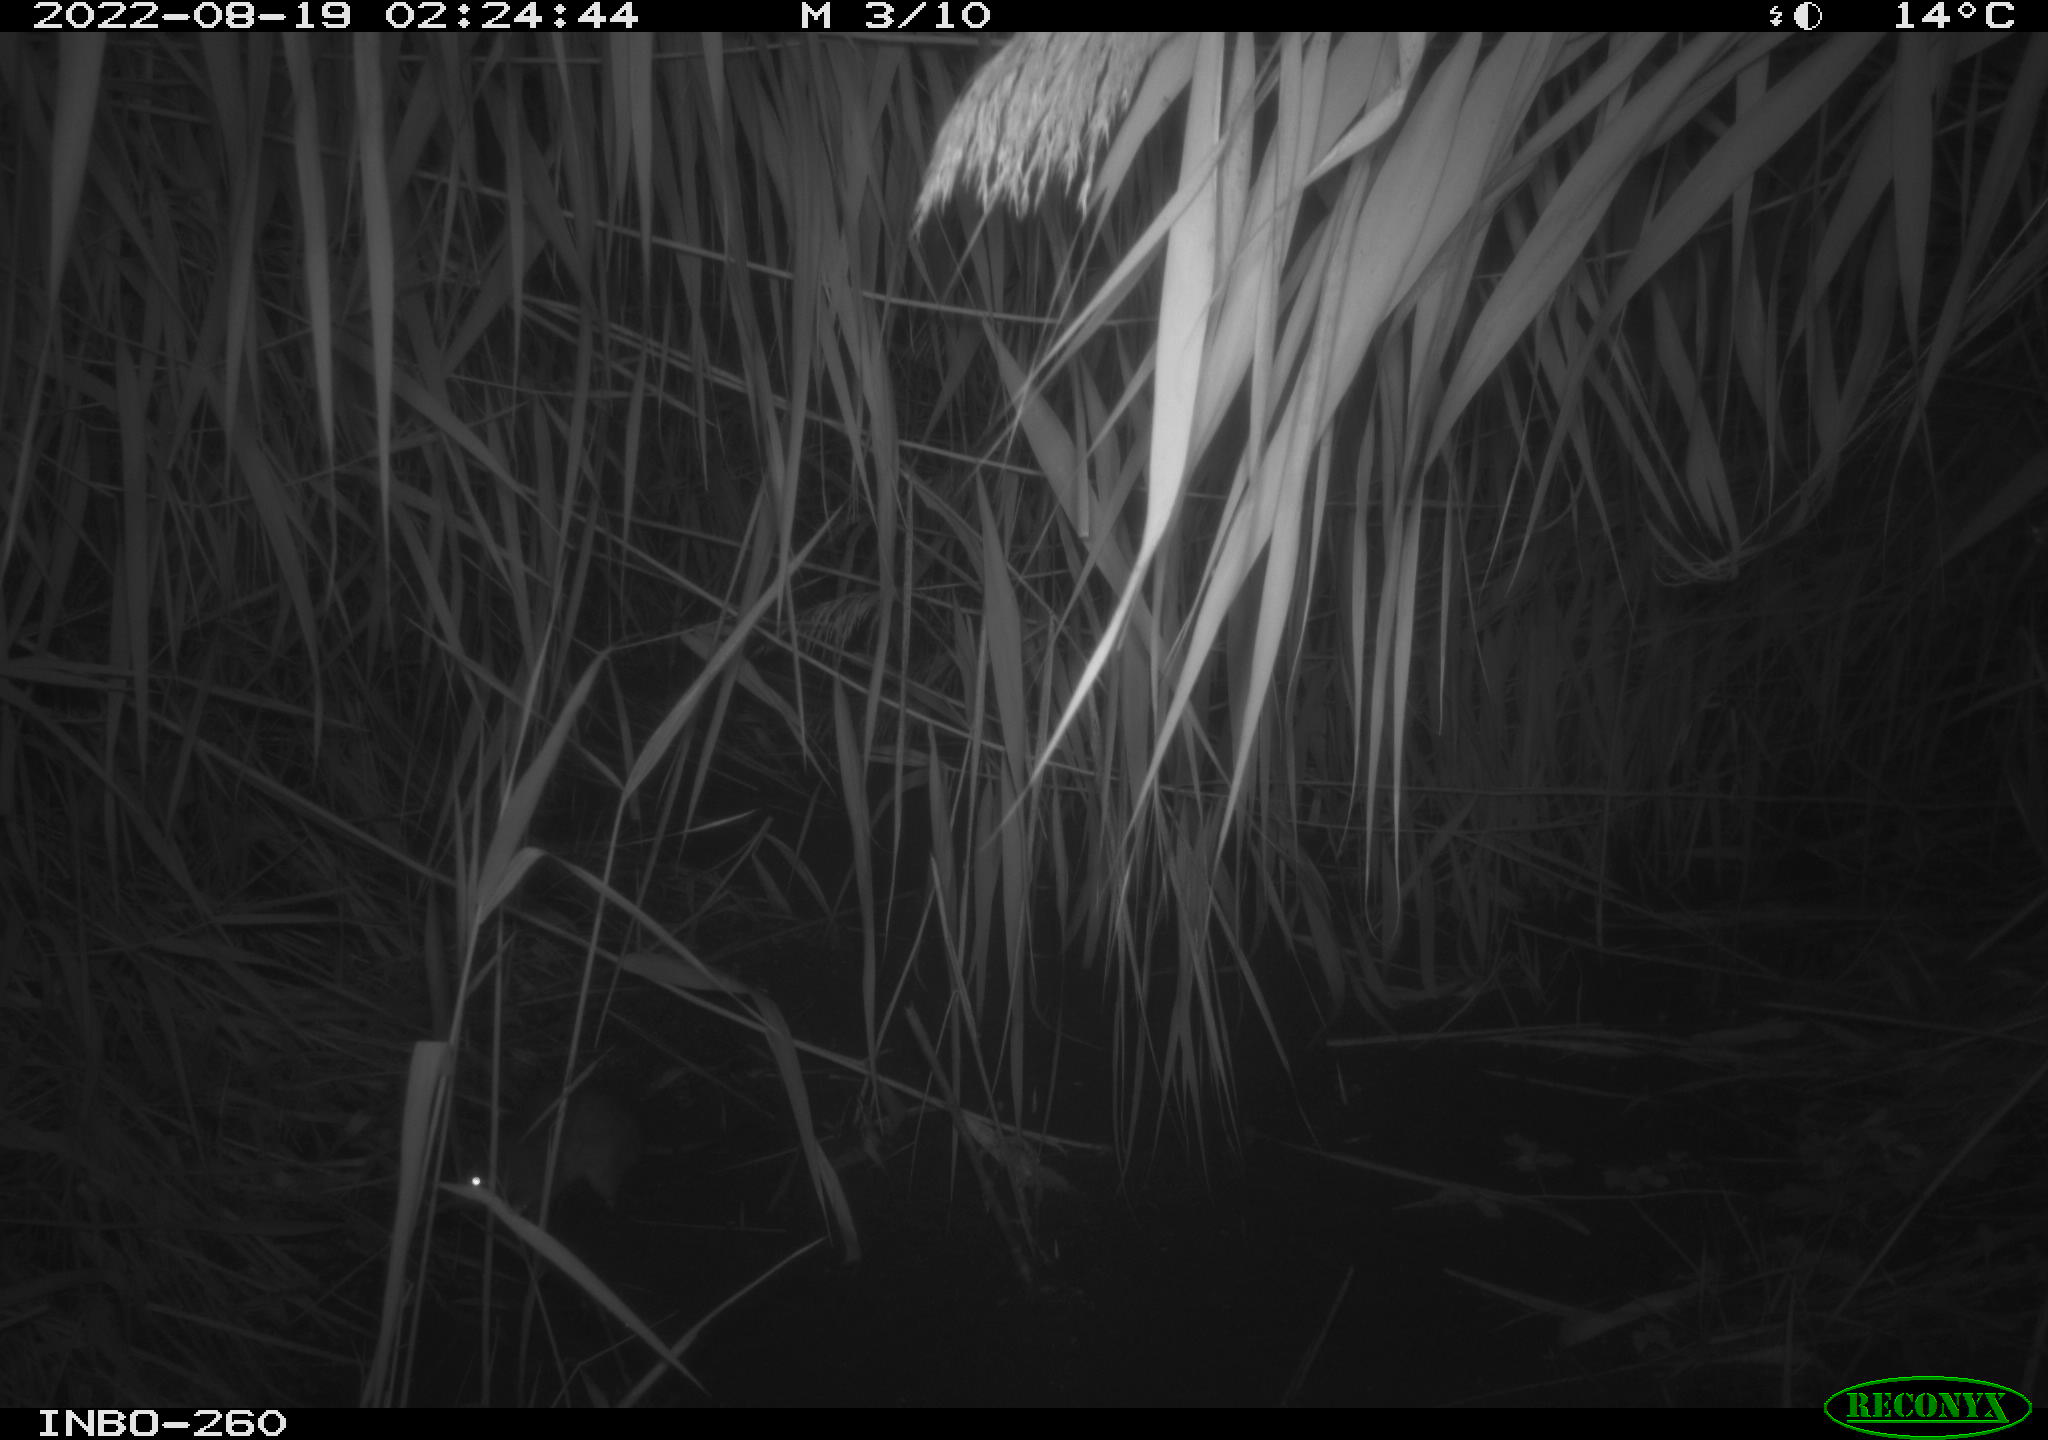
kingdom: Animalia
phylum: Chordata
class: Mammalia
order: Rodentia
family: Muridae
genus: Rattus
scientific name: Rattus norvegicus
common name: Brown rat
